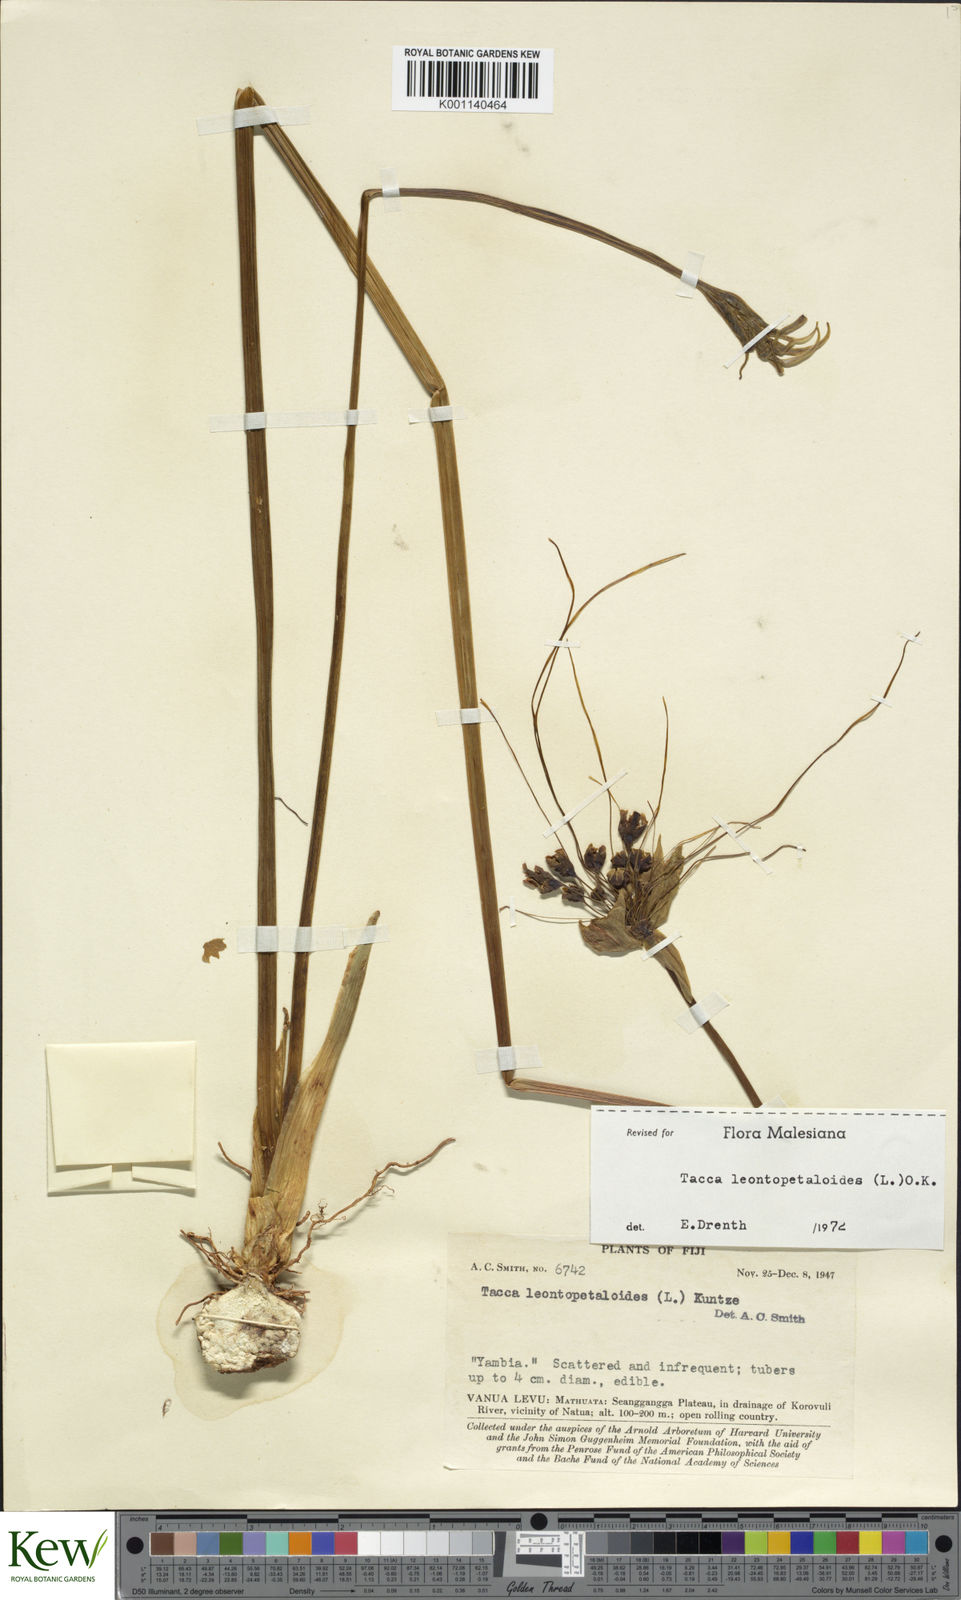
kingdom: Plantae
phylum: Tracheophyta
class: Liliopsida
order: Dioscoreales
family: Dioscoreaceae
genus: Tacca
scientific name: Tacca leontopetaloides
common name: Arrowroot
